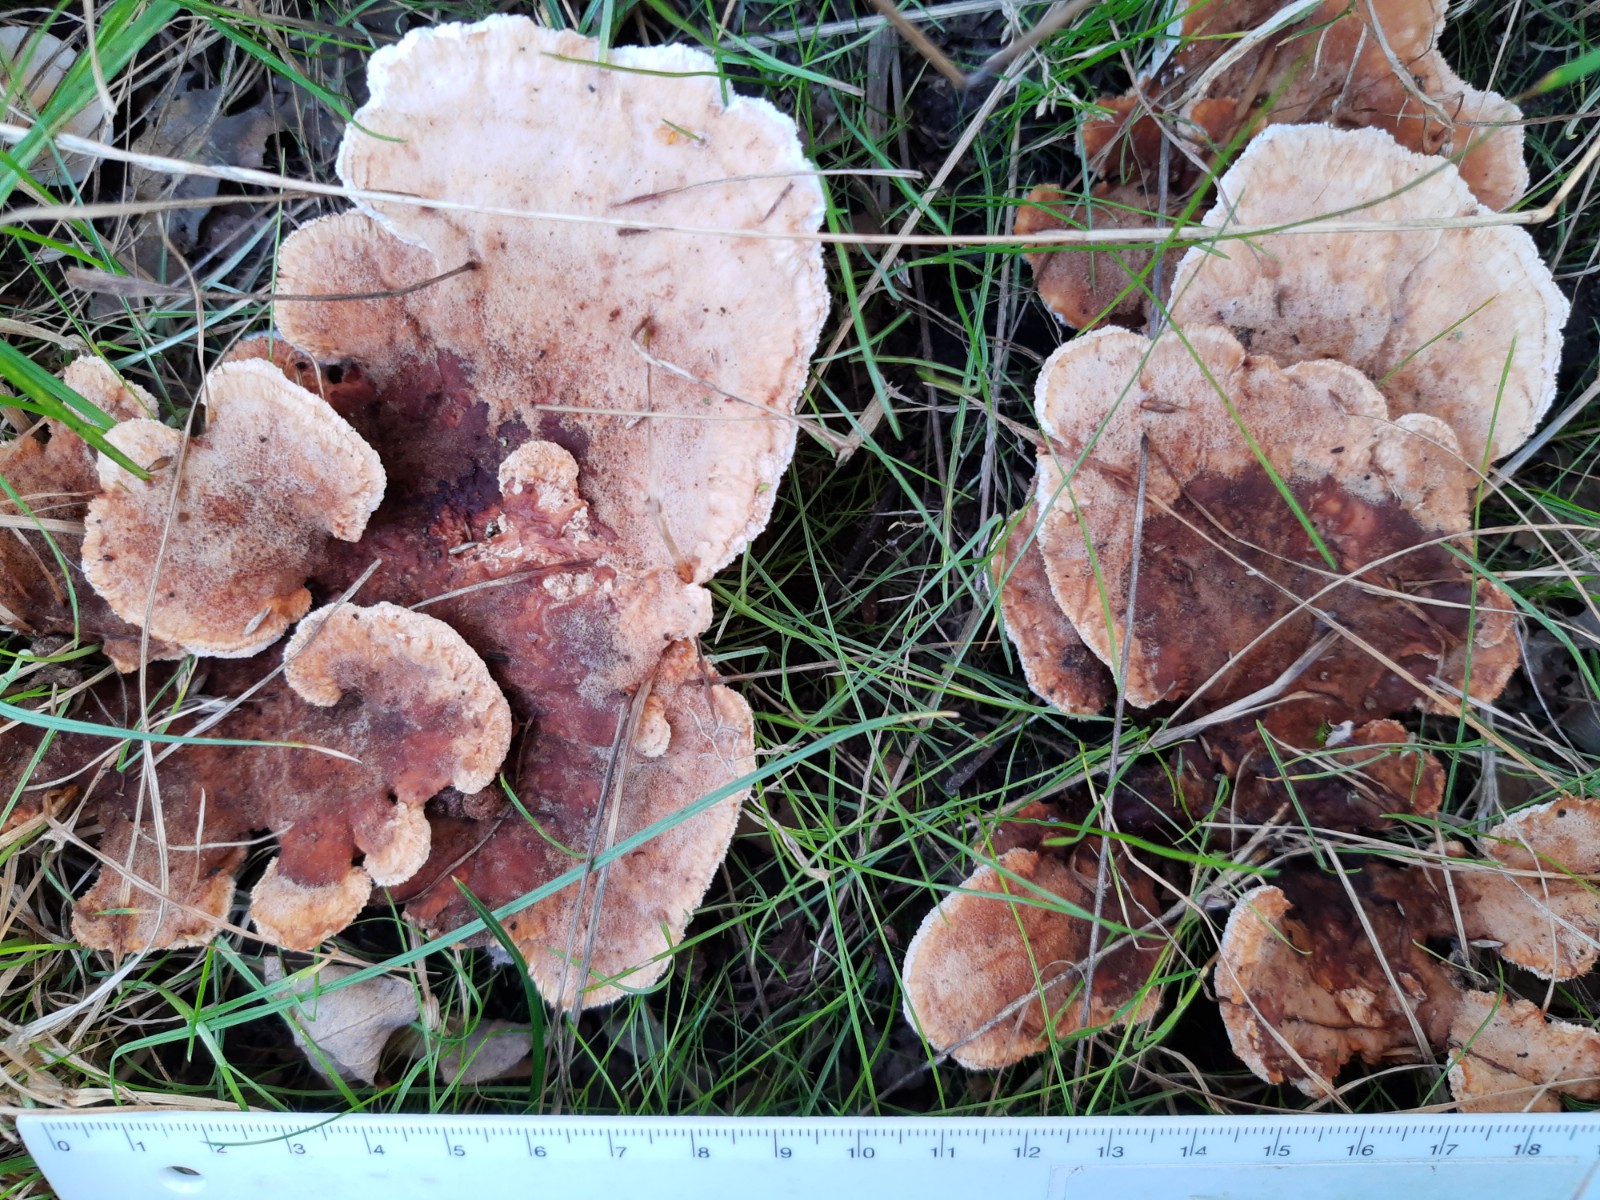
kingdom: Fungi
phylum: Basidiomycota
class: Agaricomycetes
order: Polyporales
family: Podoscyphaceae
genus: Abortiporus
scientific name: Abortiporus biennis
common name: rødmende pjalteporesvamp
